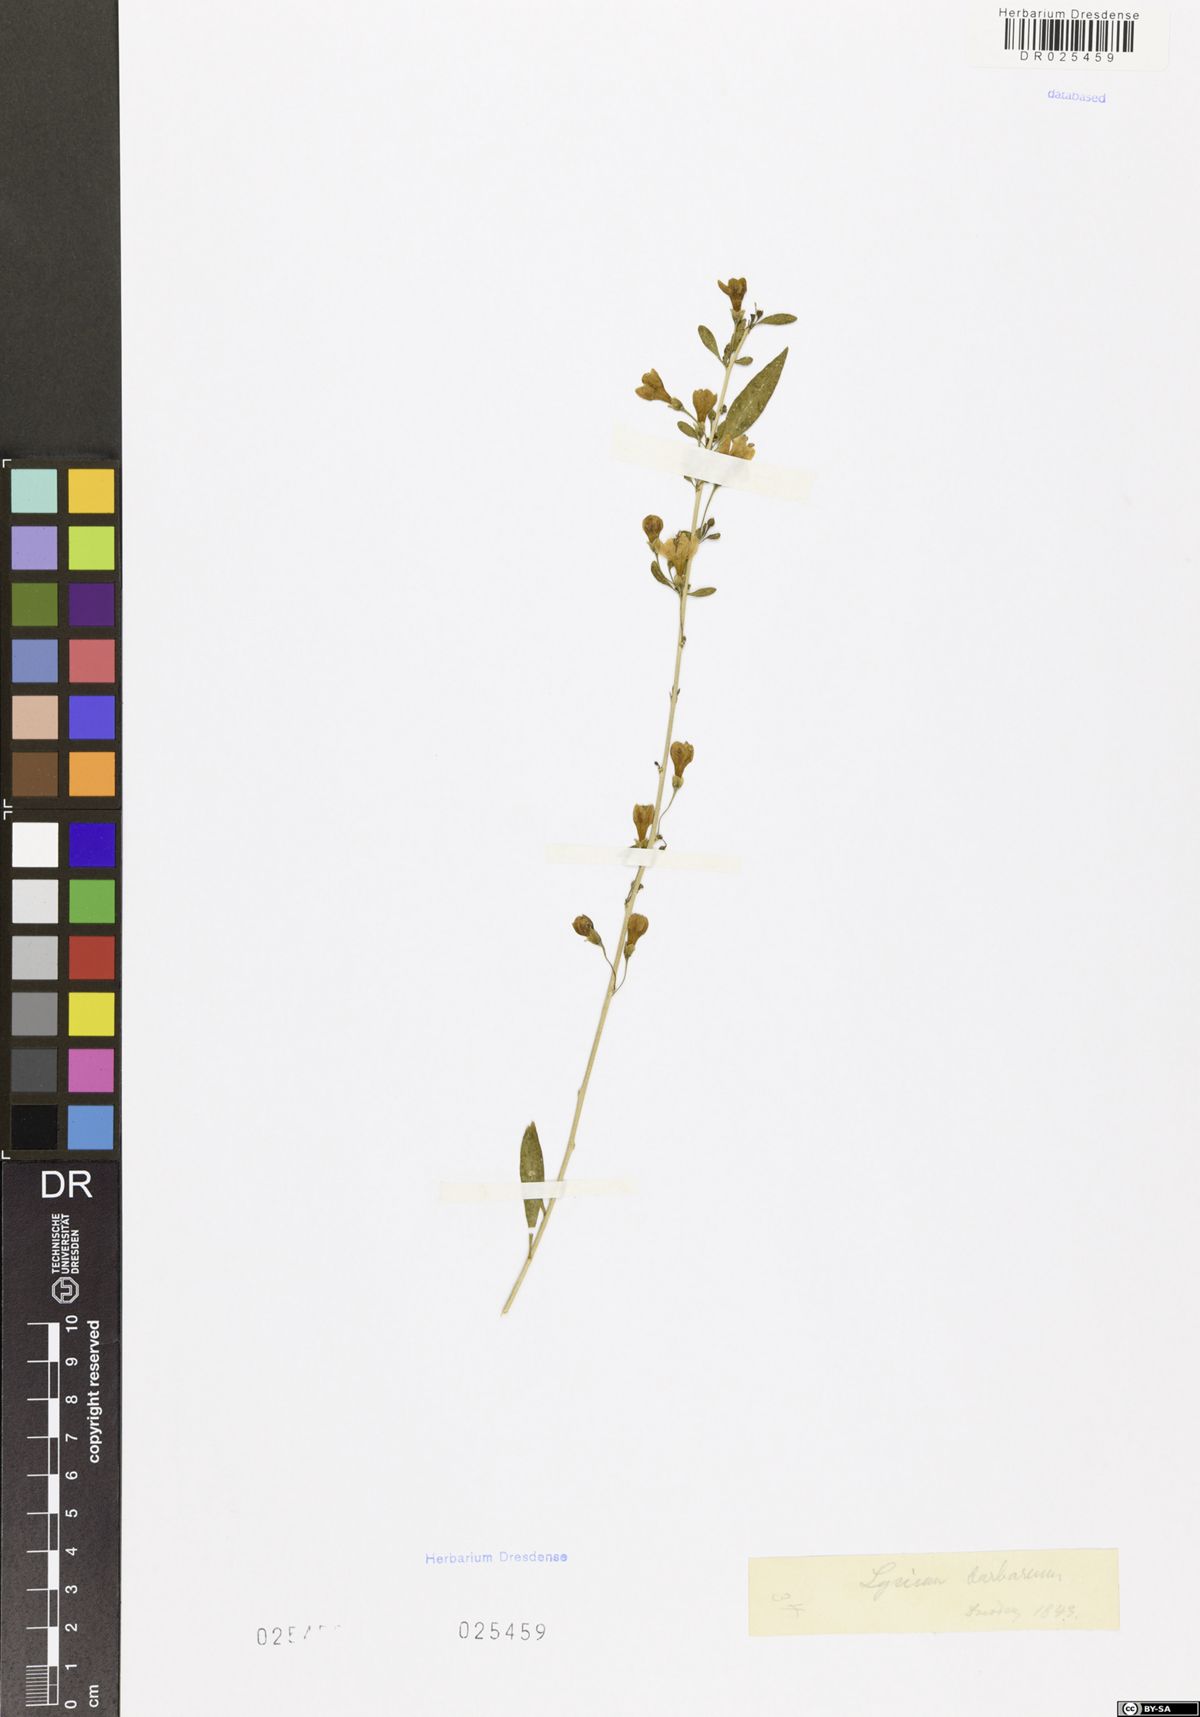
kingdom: Plantae
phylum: Tracheophyta
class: Magnoliopsida
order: Solanales
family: Solanaceae
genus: Lycium
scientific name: Lycium barbarum
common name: Duke of argyll's teaplant
